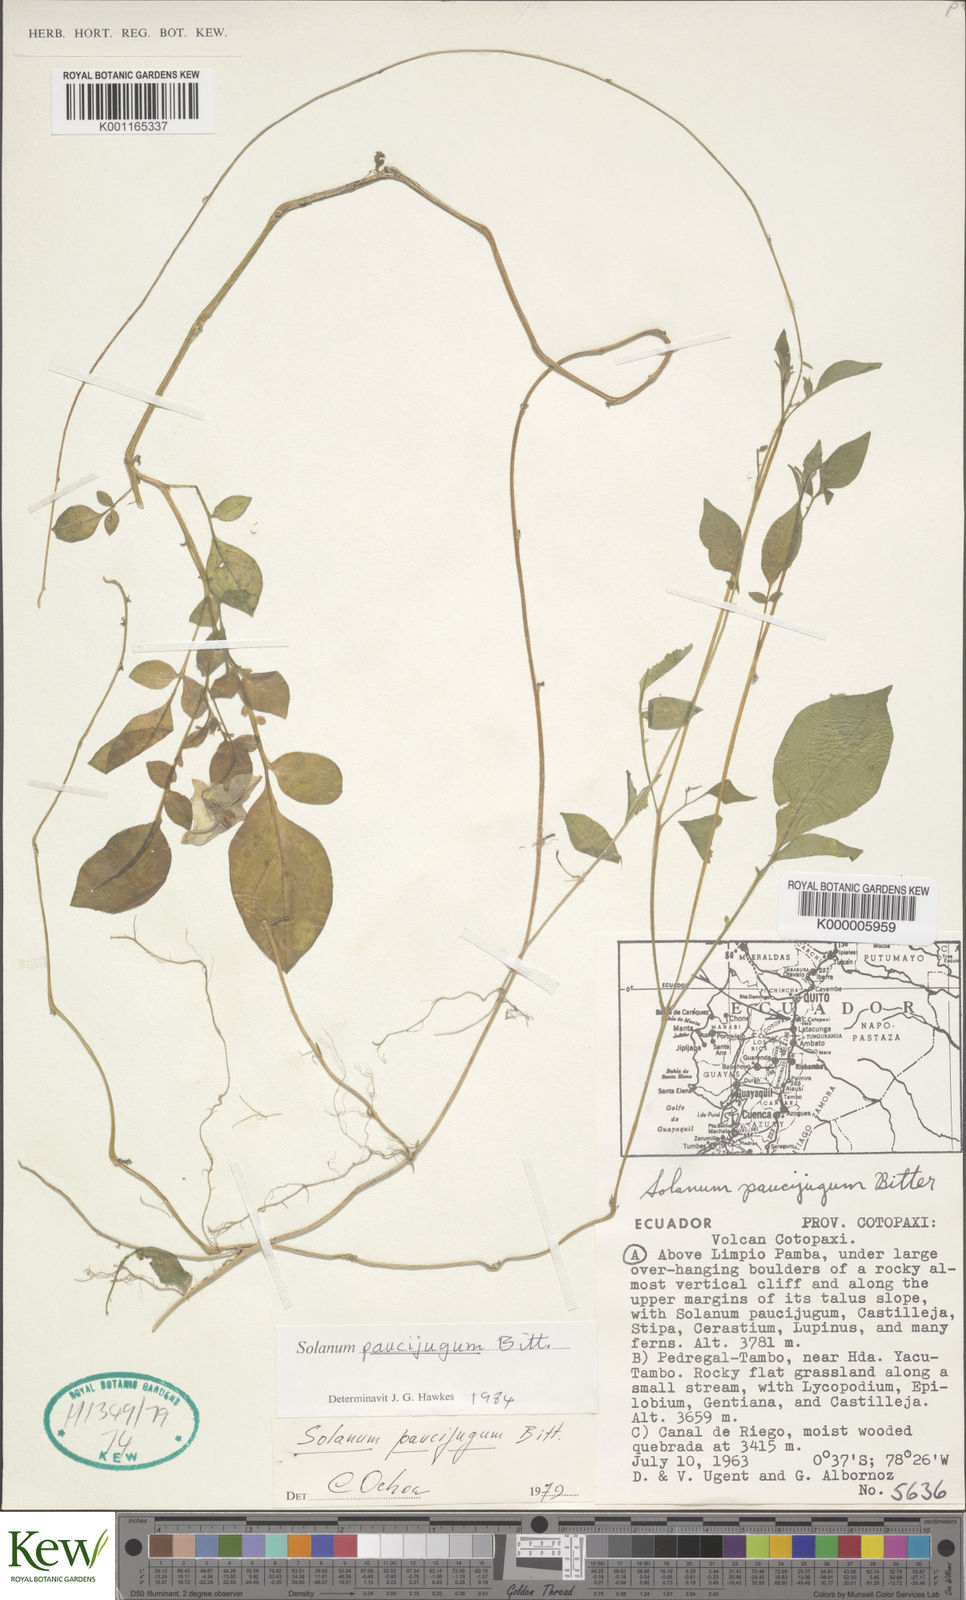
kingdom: Plantae
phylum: Tracheophyta
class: Magnoliopsida
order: Solanales
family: Solanaceae
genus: Solanum
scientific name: Solanum andreanum
